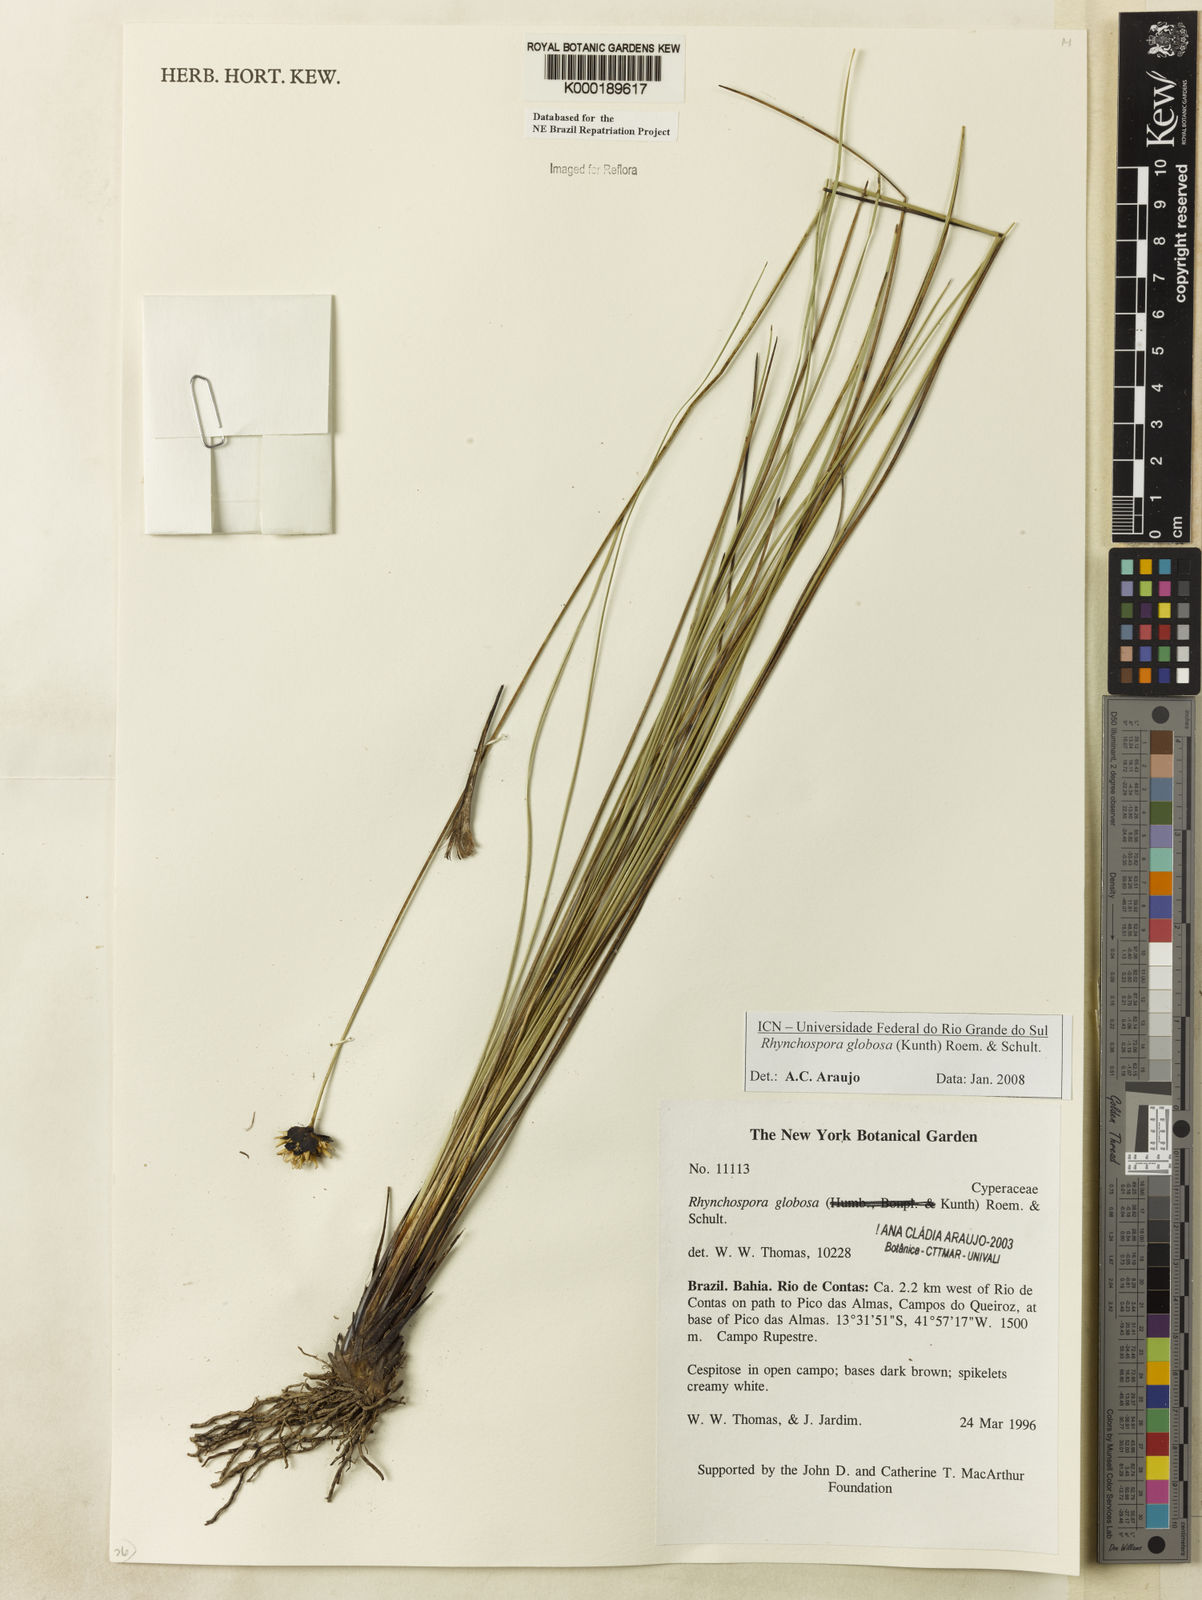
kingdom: Plantae
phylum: Tracheophyta
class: Liliopsida
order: Poales
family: Cyperaceae
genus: Rhynchospora
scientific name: Rhynchospora globosa
